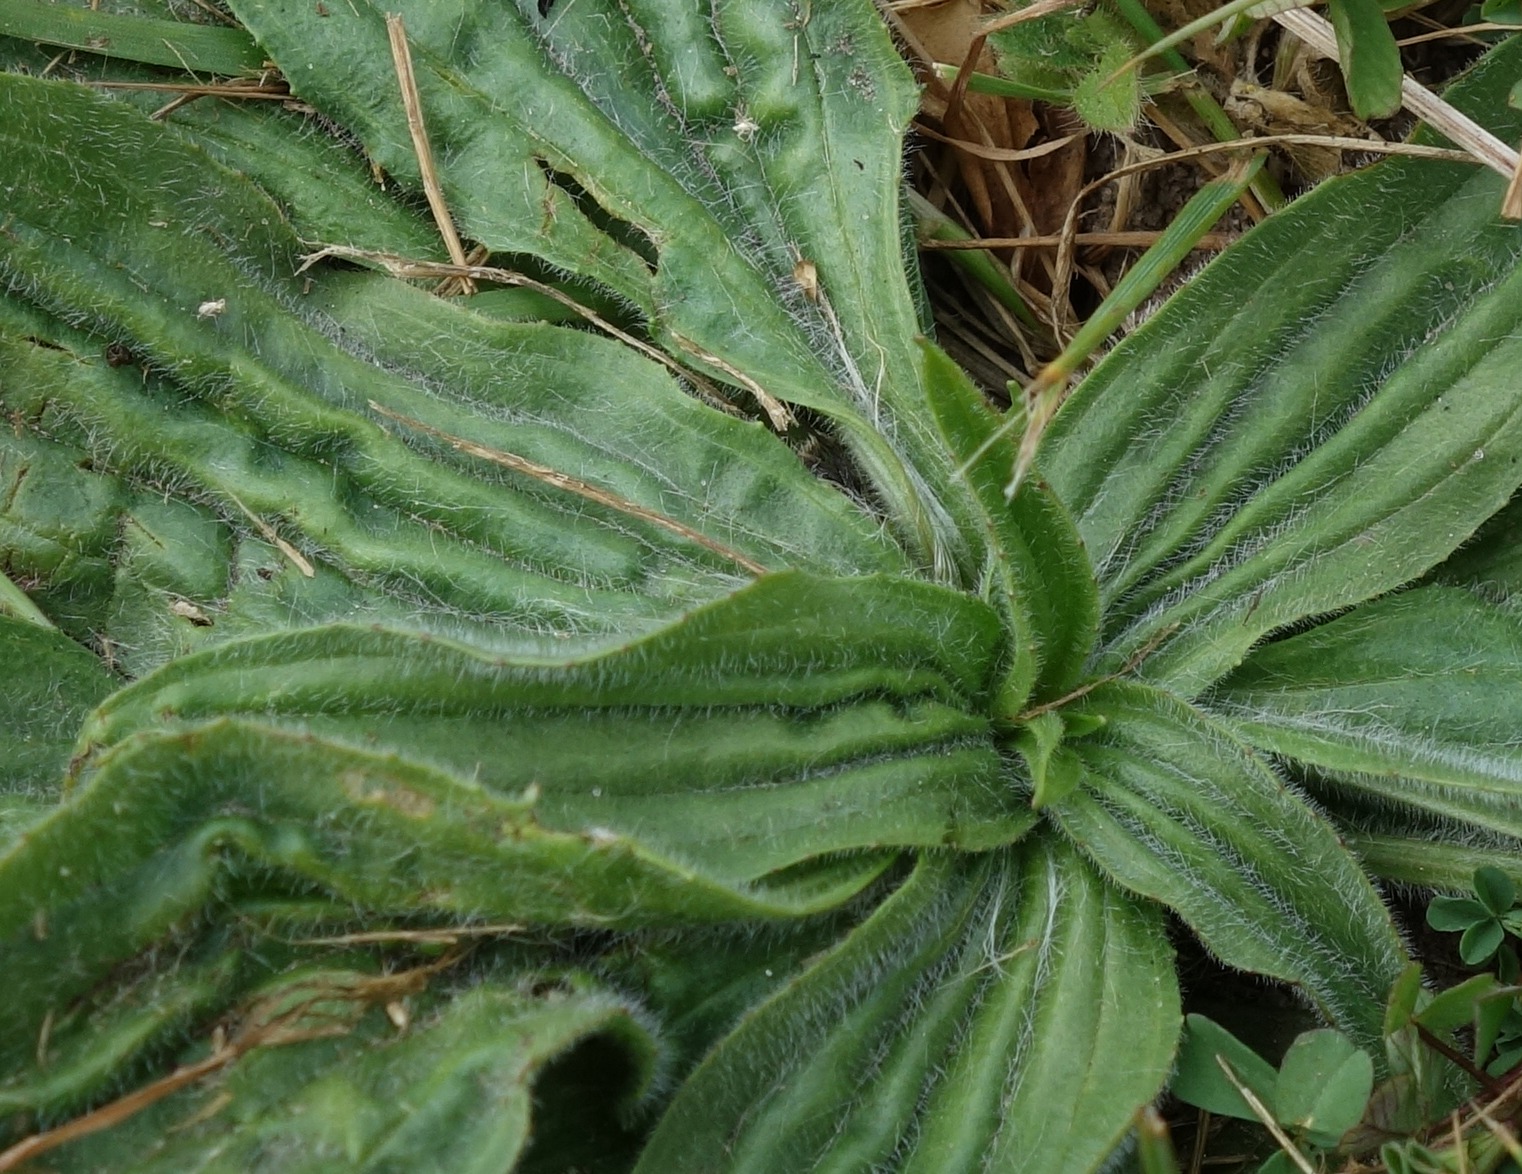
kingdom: Plantae
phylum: Tracheophyta
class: Magnoliopsida
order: Lamiales
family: Plantaginaceae
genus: Plantago
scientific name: Plantago lanceolata
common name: Lancet-vejbred
